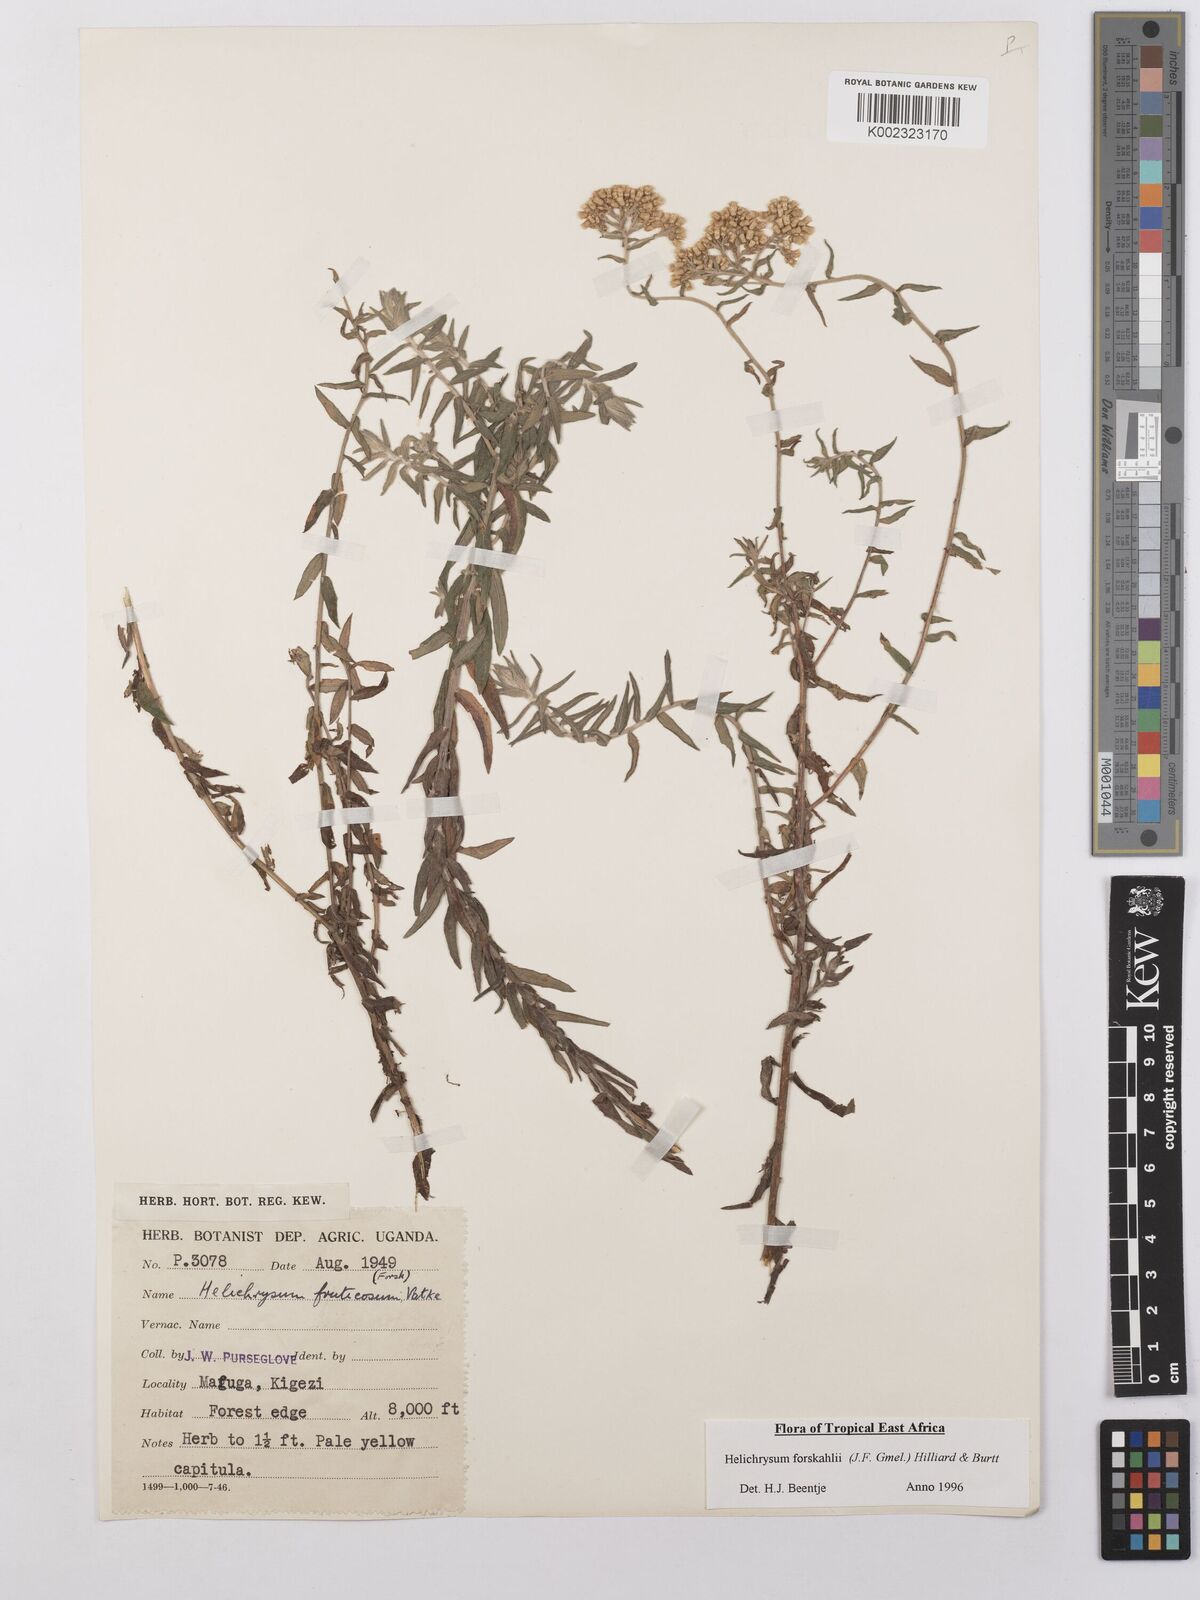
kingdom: Plantae
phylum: Tracheophyta
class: Magnoliopsida
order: Asterales
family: Asteraceae
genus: Helichrysum
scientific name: Helichrysum forskahlii
